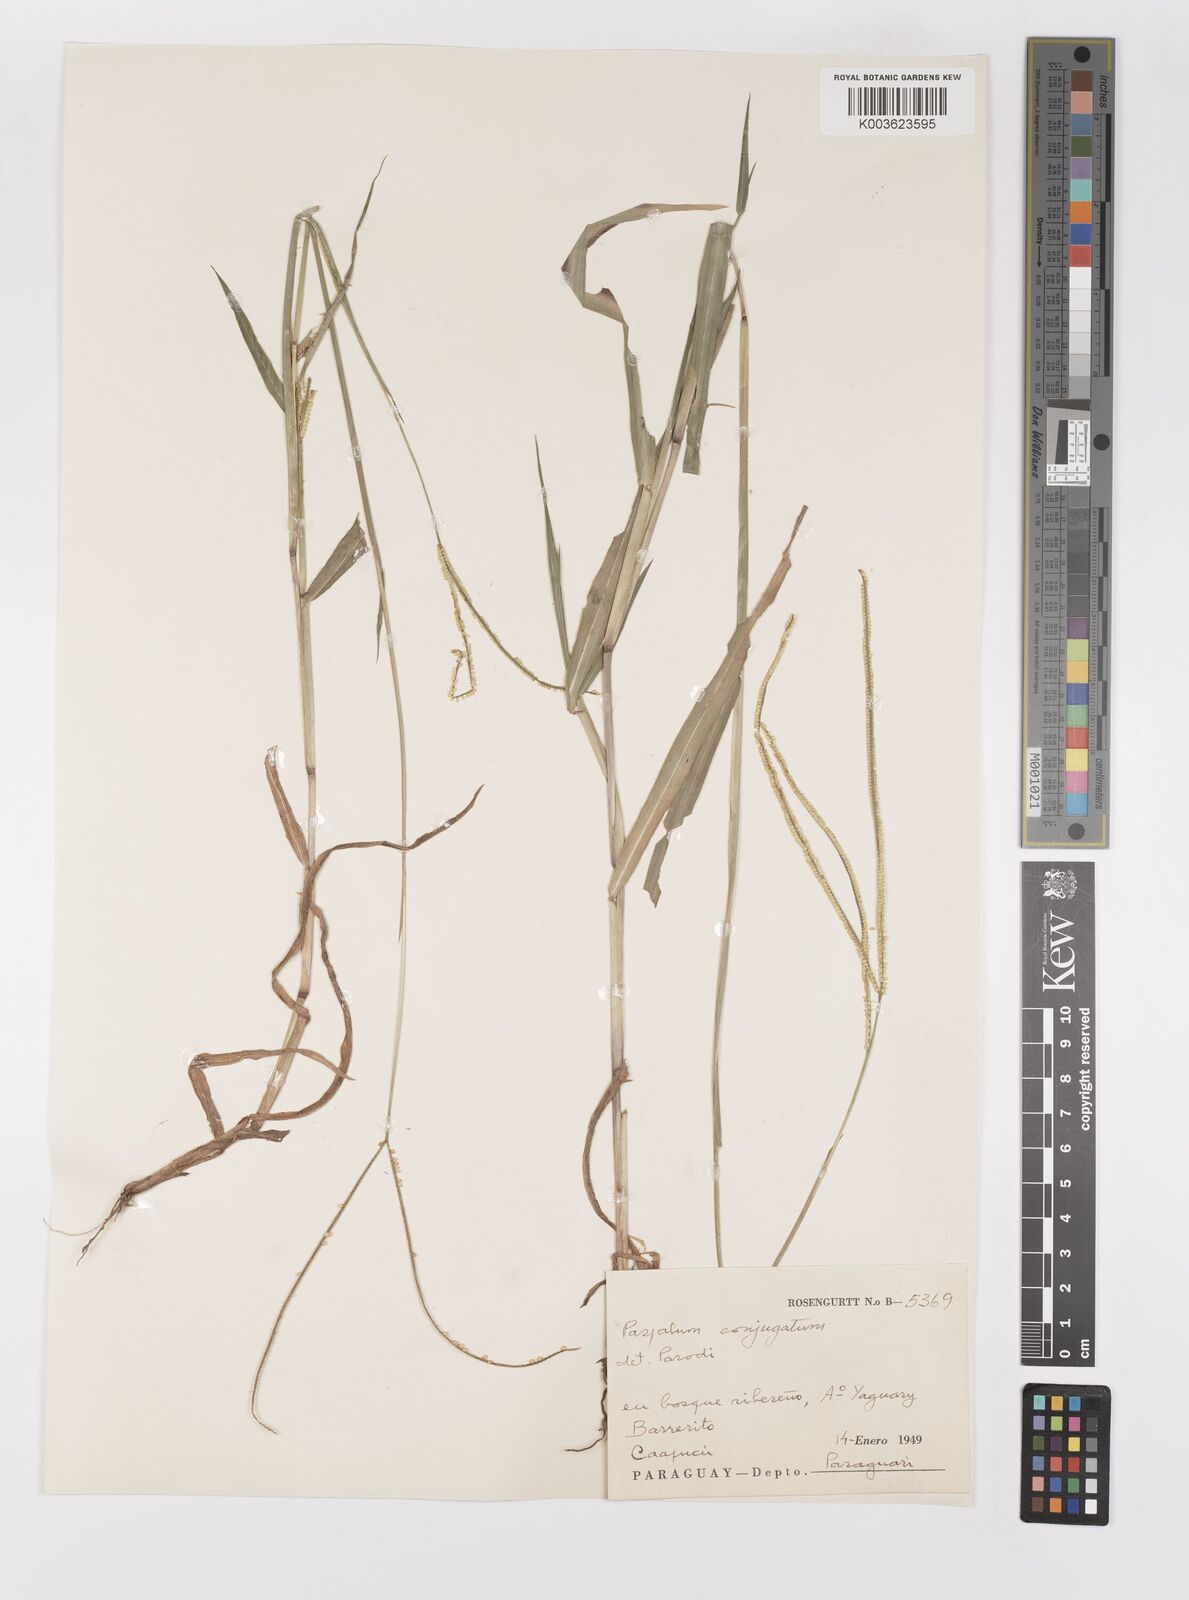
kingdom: Plantae
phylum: Tracheophyta
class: Liliopsida
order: Poales
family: Poaceae
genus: Paspalum
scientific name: Paspalum conjugatum
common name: Hilograss
